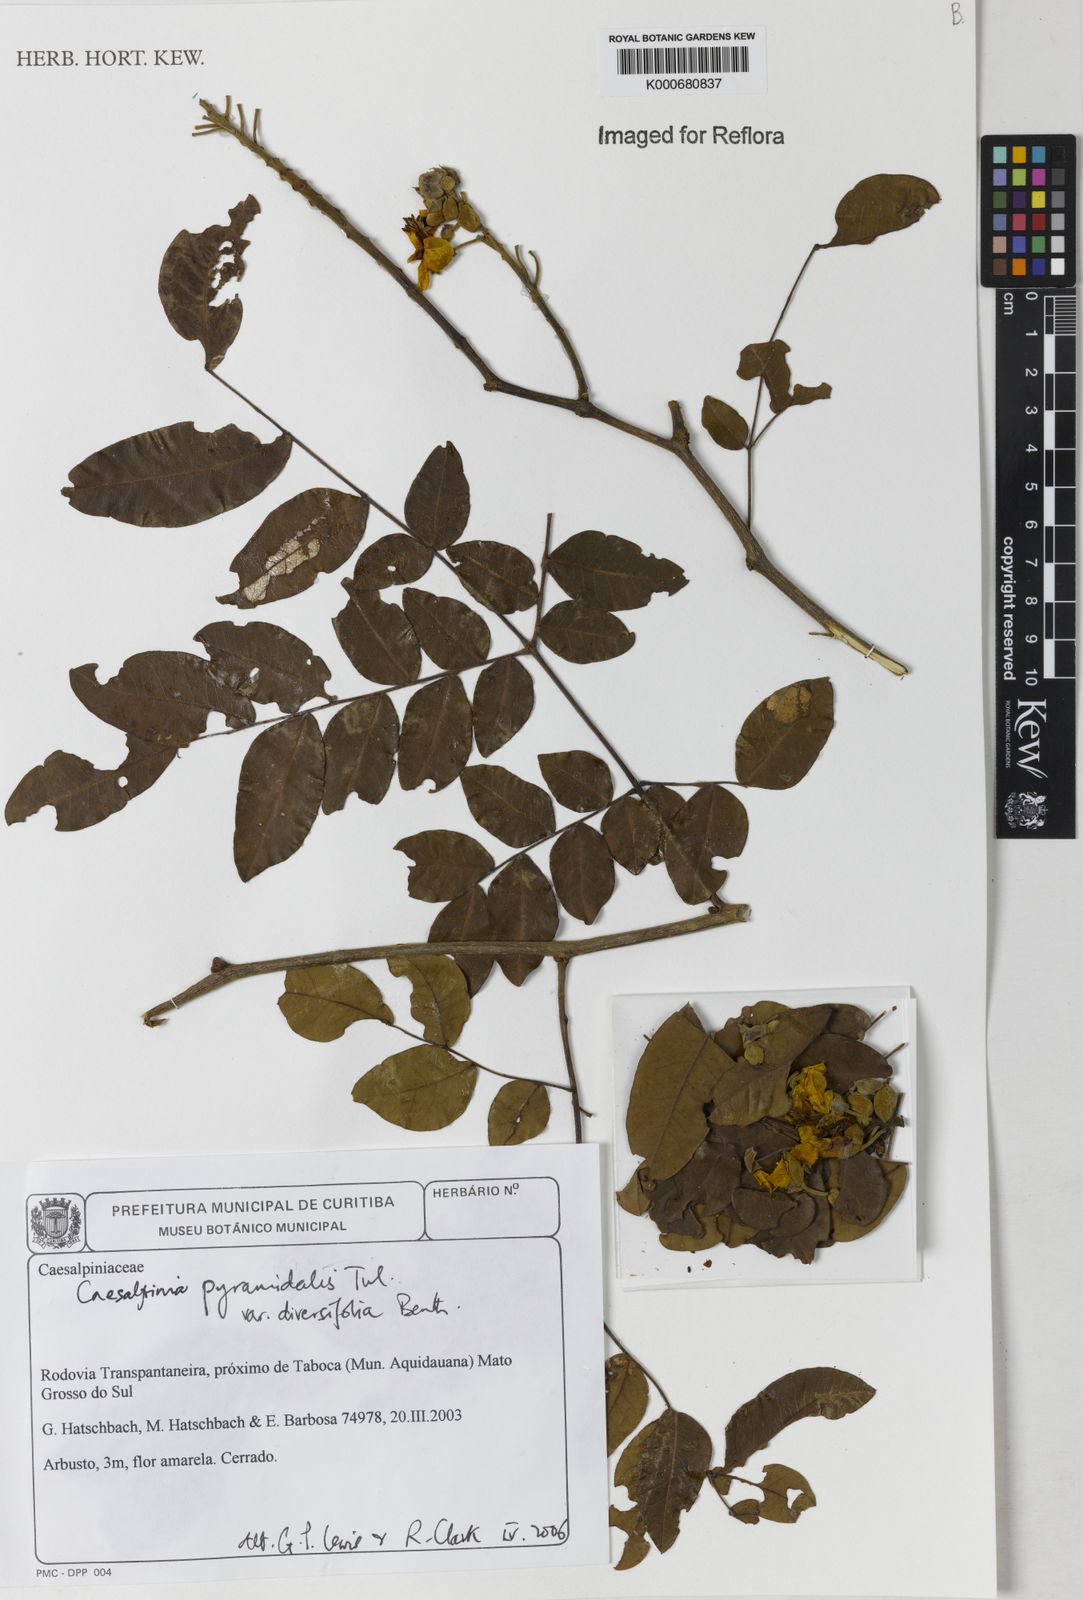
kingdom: Plantae
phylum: Tracheophyta
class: Magnoliopsida
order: Fabales
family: Fabaceae
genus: Cenostigma
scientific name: Cenostigma diversifolium
